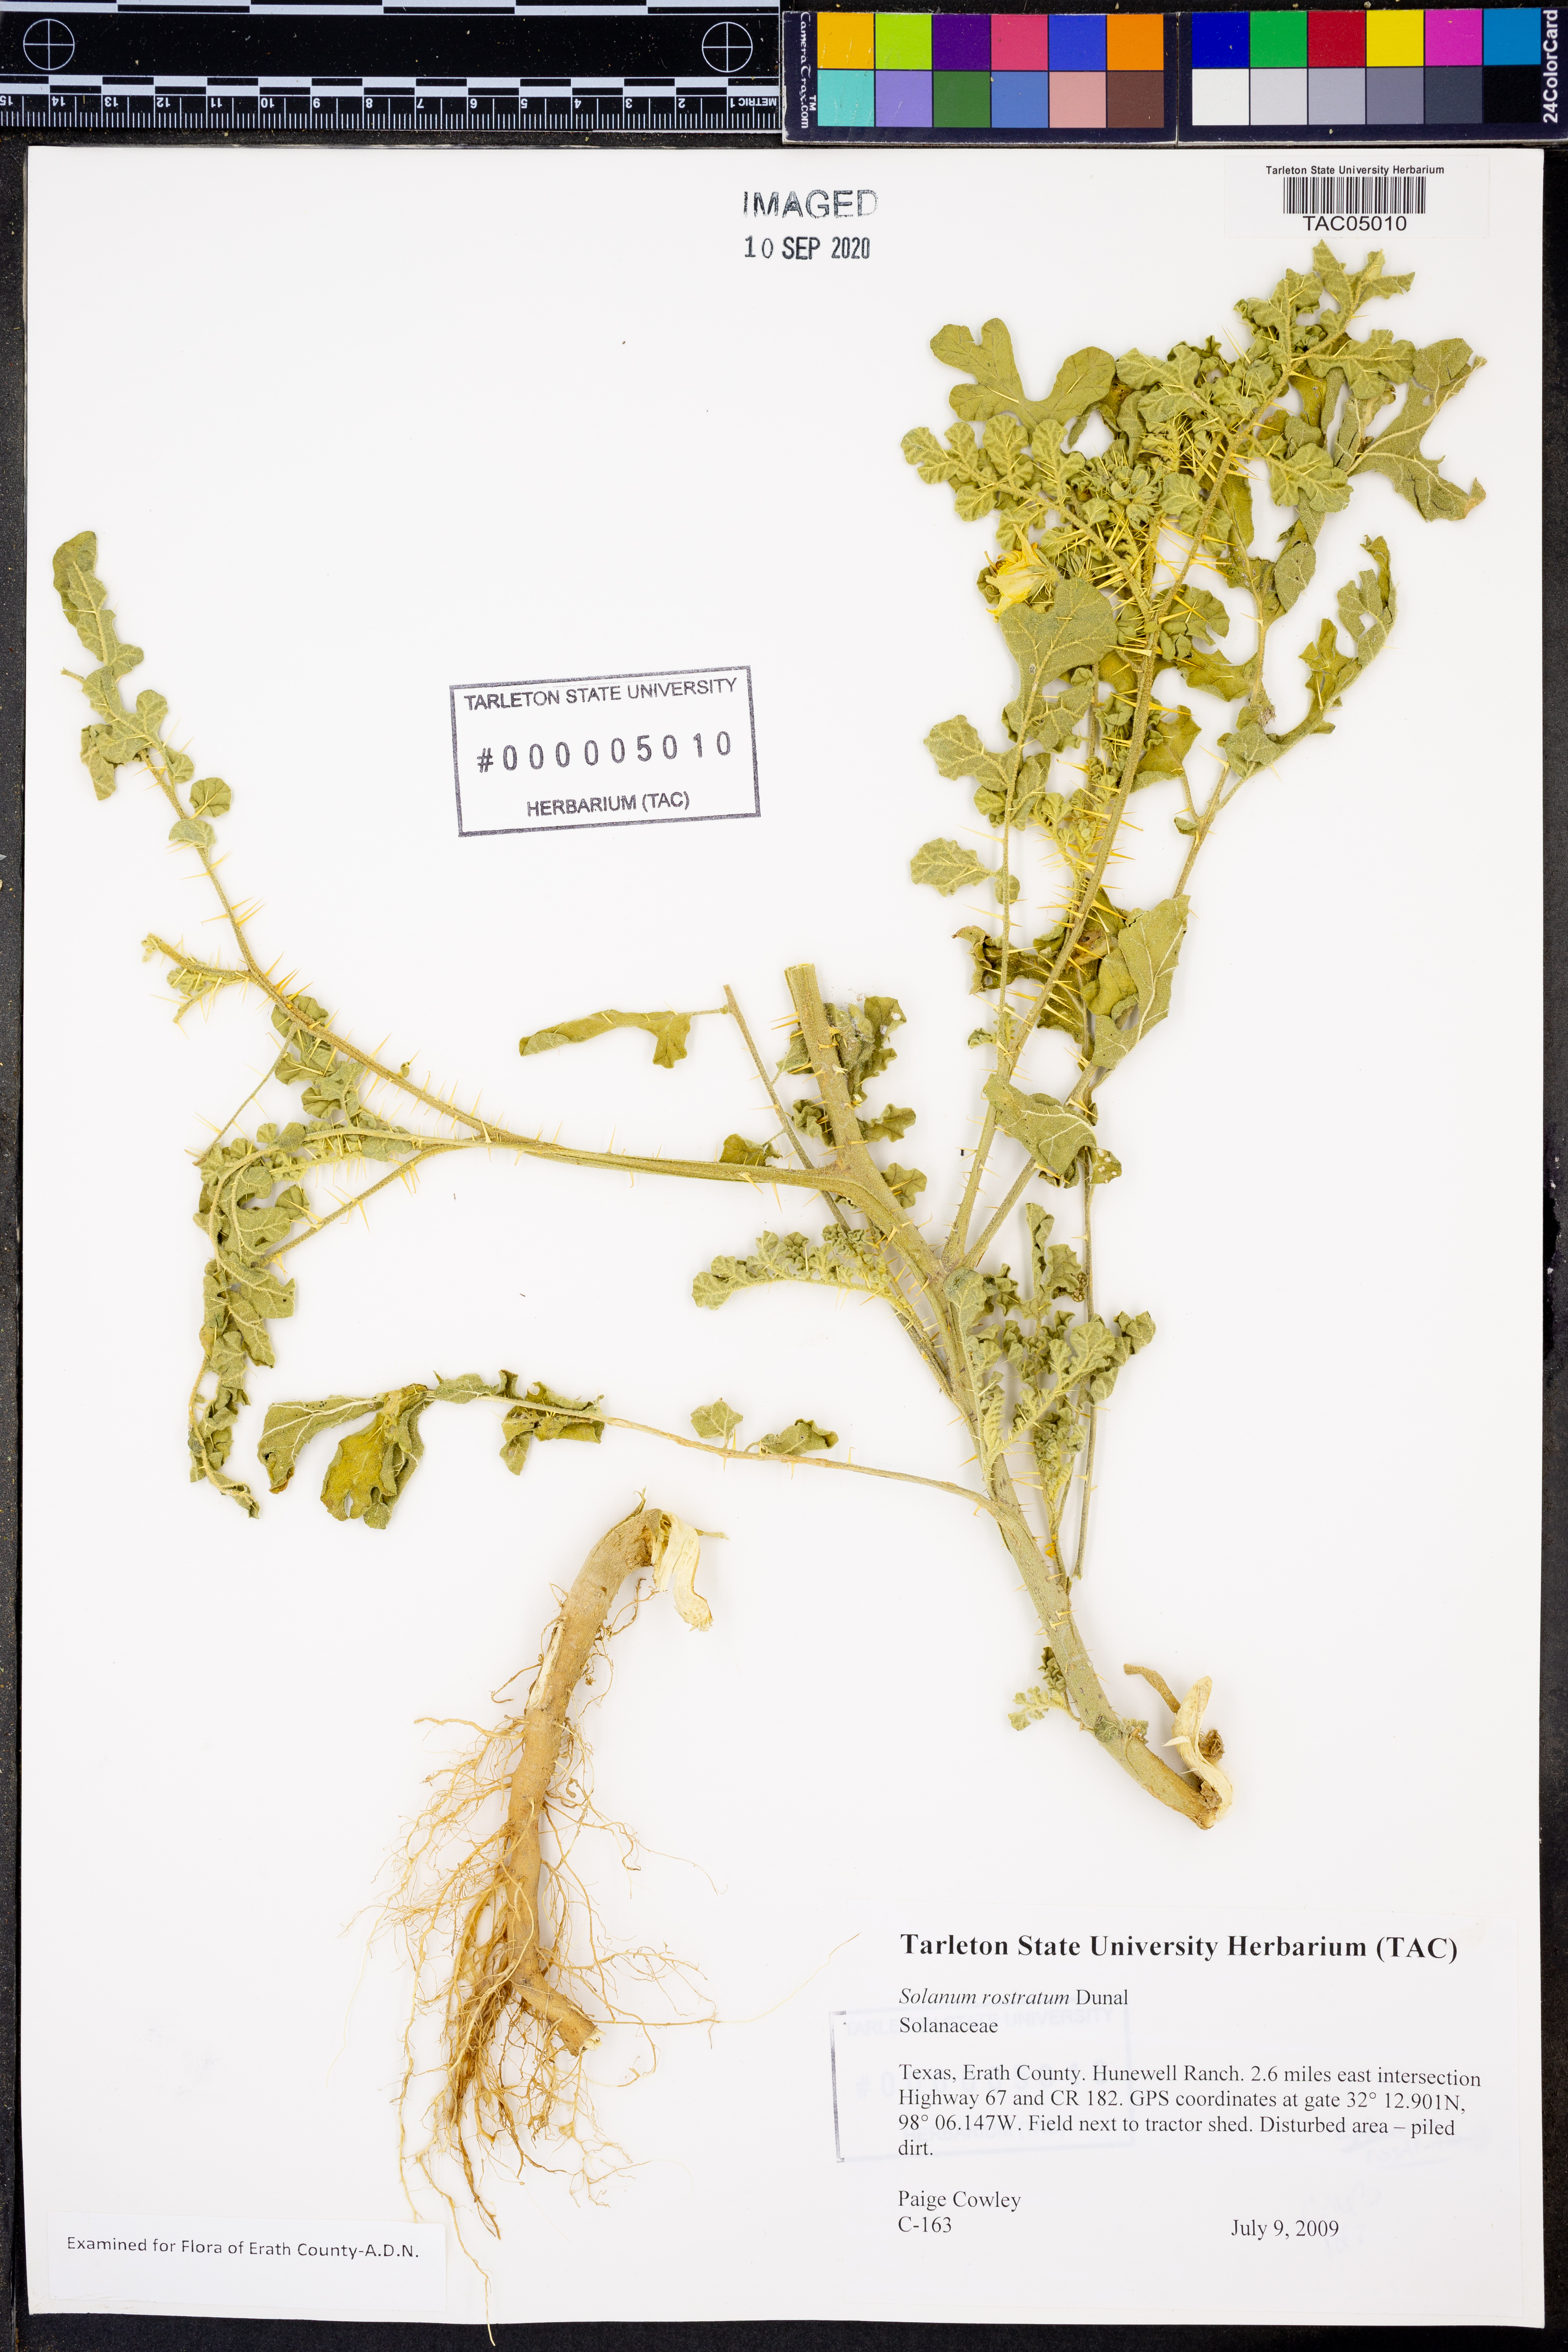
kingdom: Plantae
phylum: Tracheophyta
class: Magnoliopsida
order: Solanales
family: Solanaceae
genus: Solanum
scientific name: Solanum angustifolium
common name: Buffalobur nightshade
